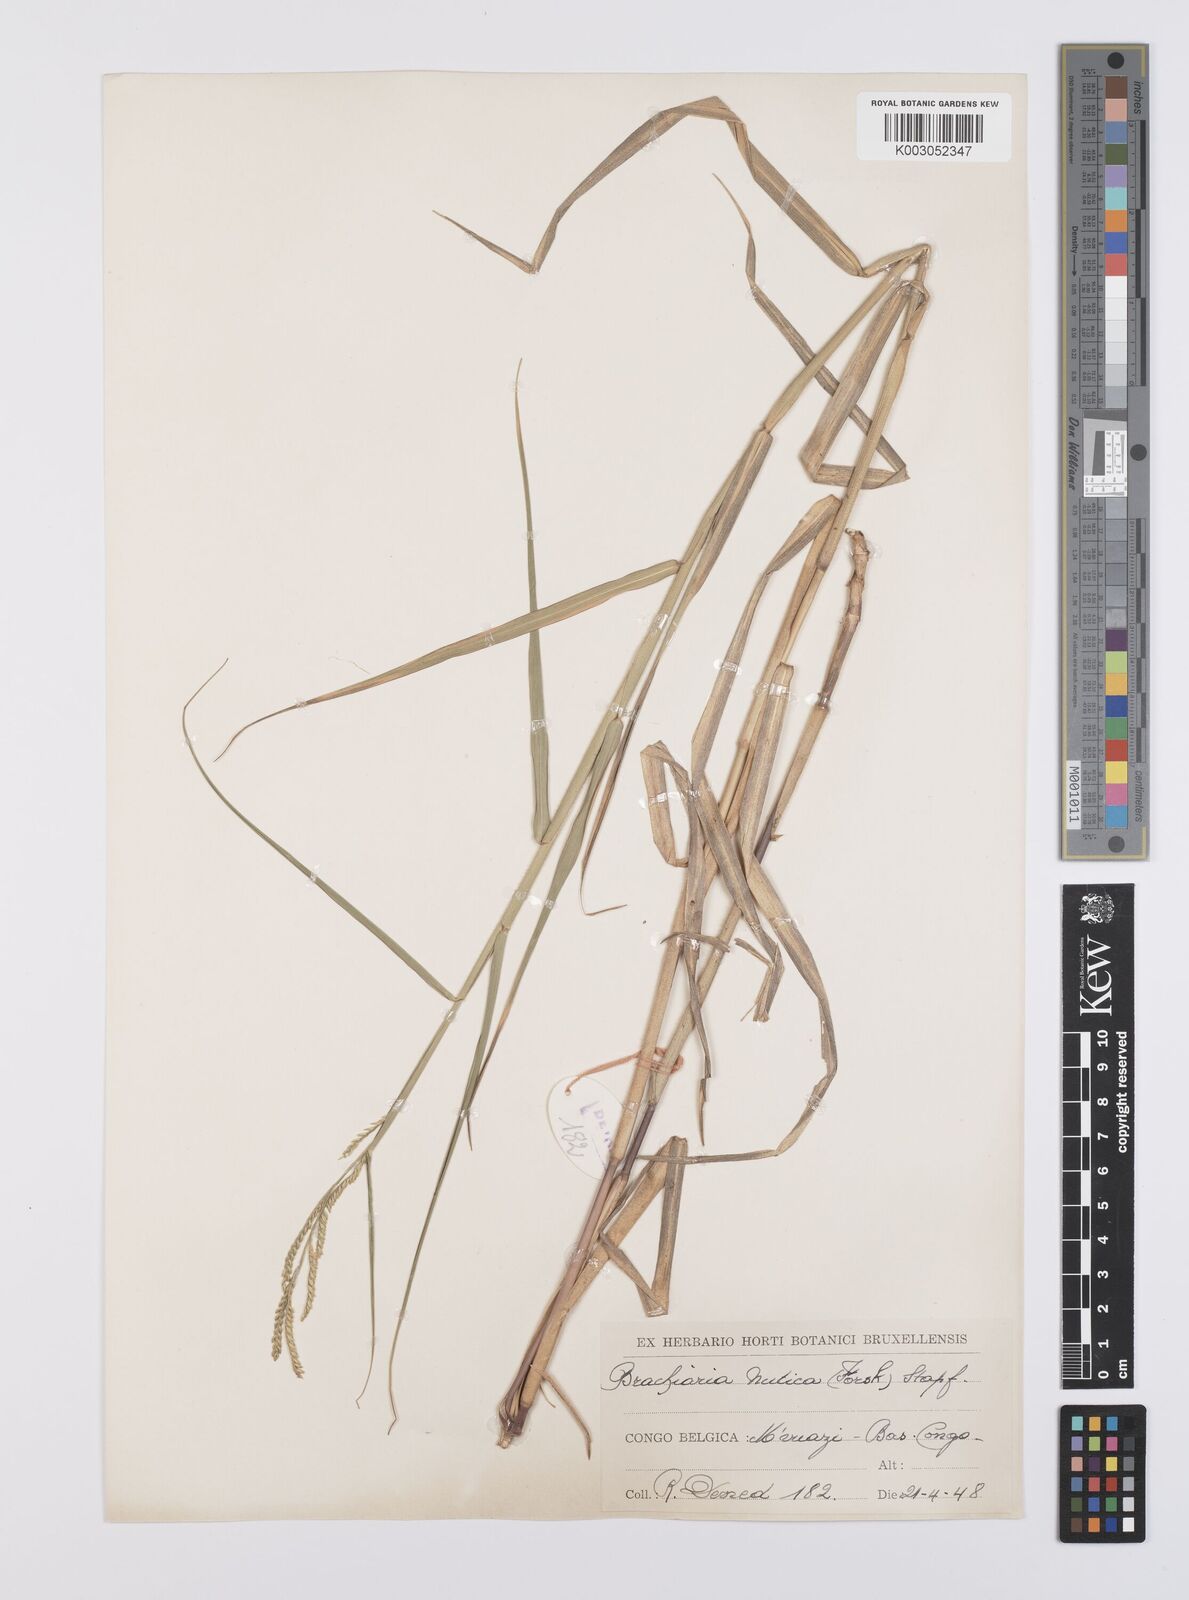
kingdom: Plantae
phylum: Tracheophyta
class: Liliopsida
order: Poales
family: Poaceae
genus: Urochloa
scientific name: Urochloa arrecta
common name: African signalgrass
